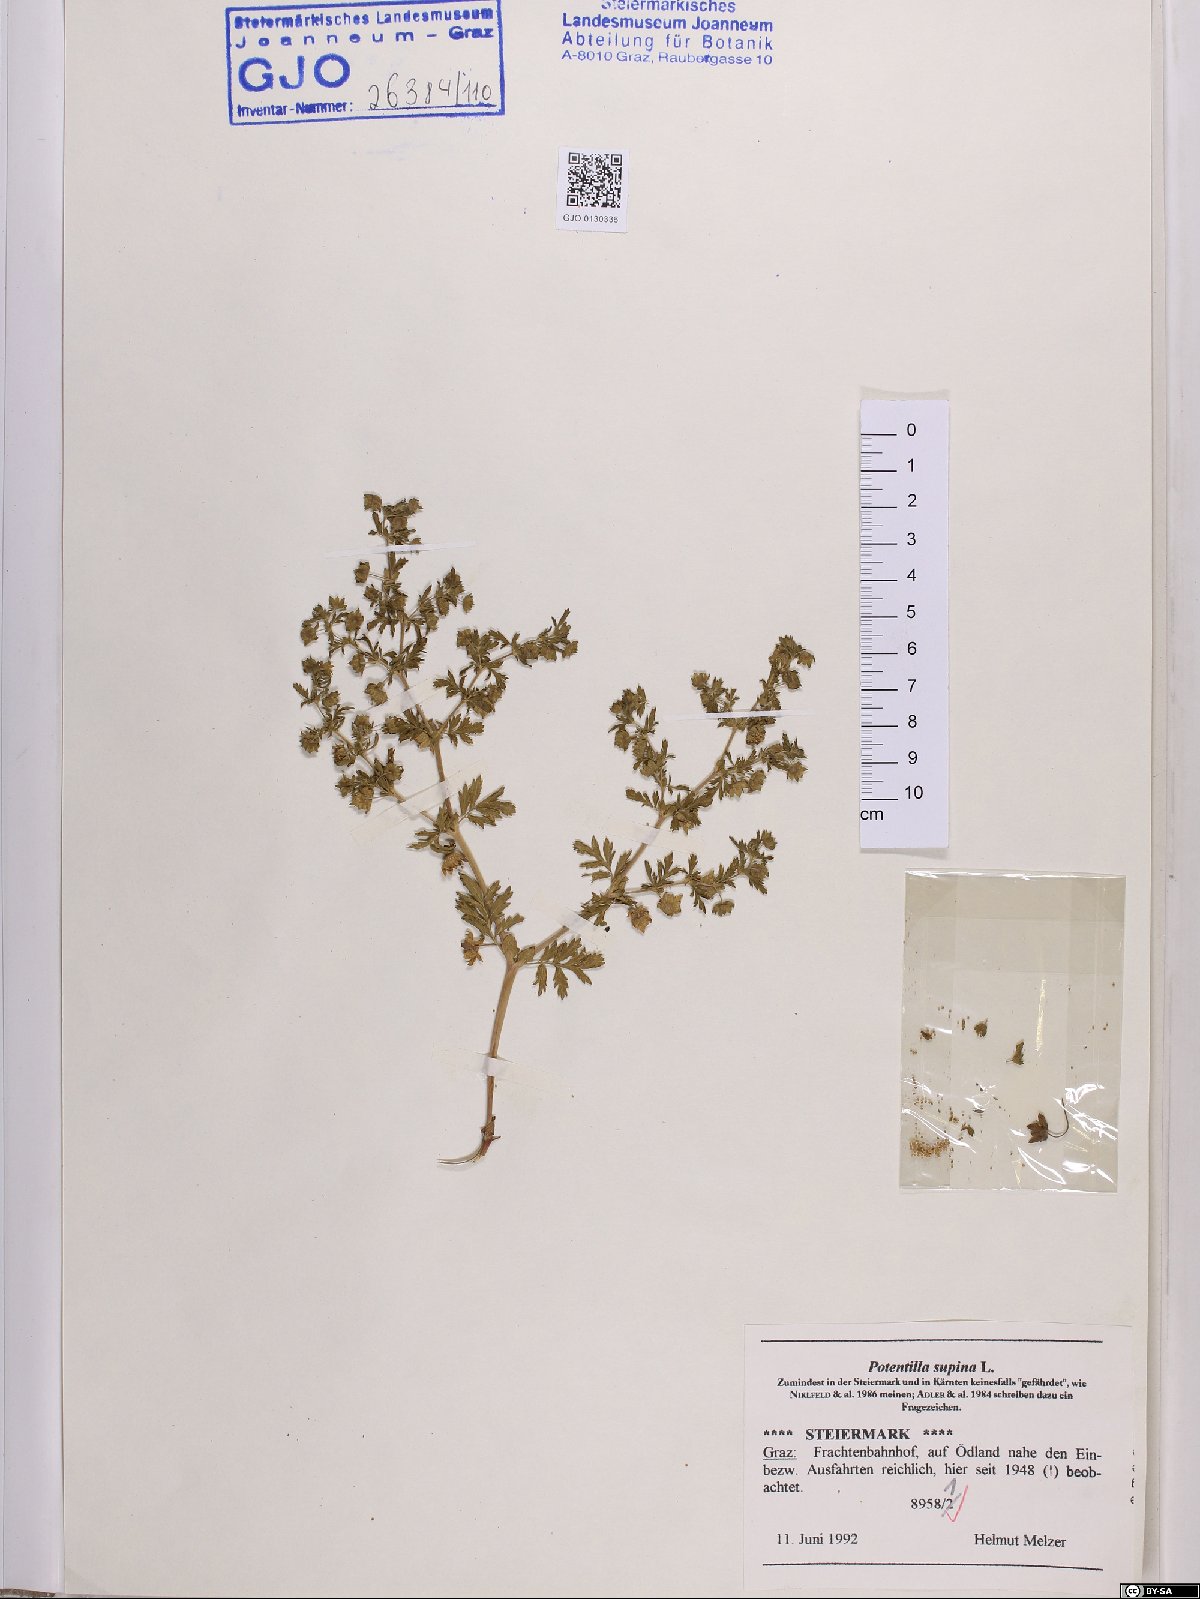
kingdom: Plantae
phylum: Tracheophyta
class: Magnoliopsida
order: Rosales
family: Rosaceae
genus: Potentilla
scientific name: Potentilla supina
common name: Prostrate cinquefoil
